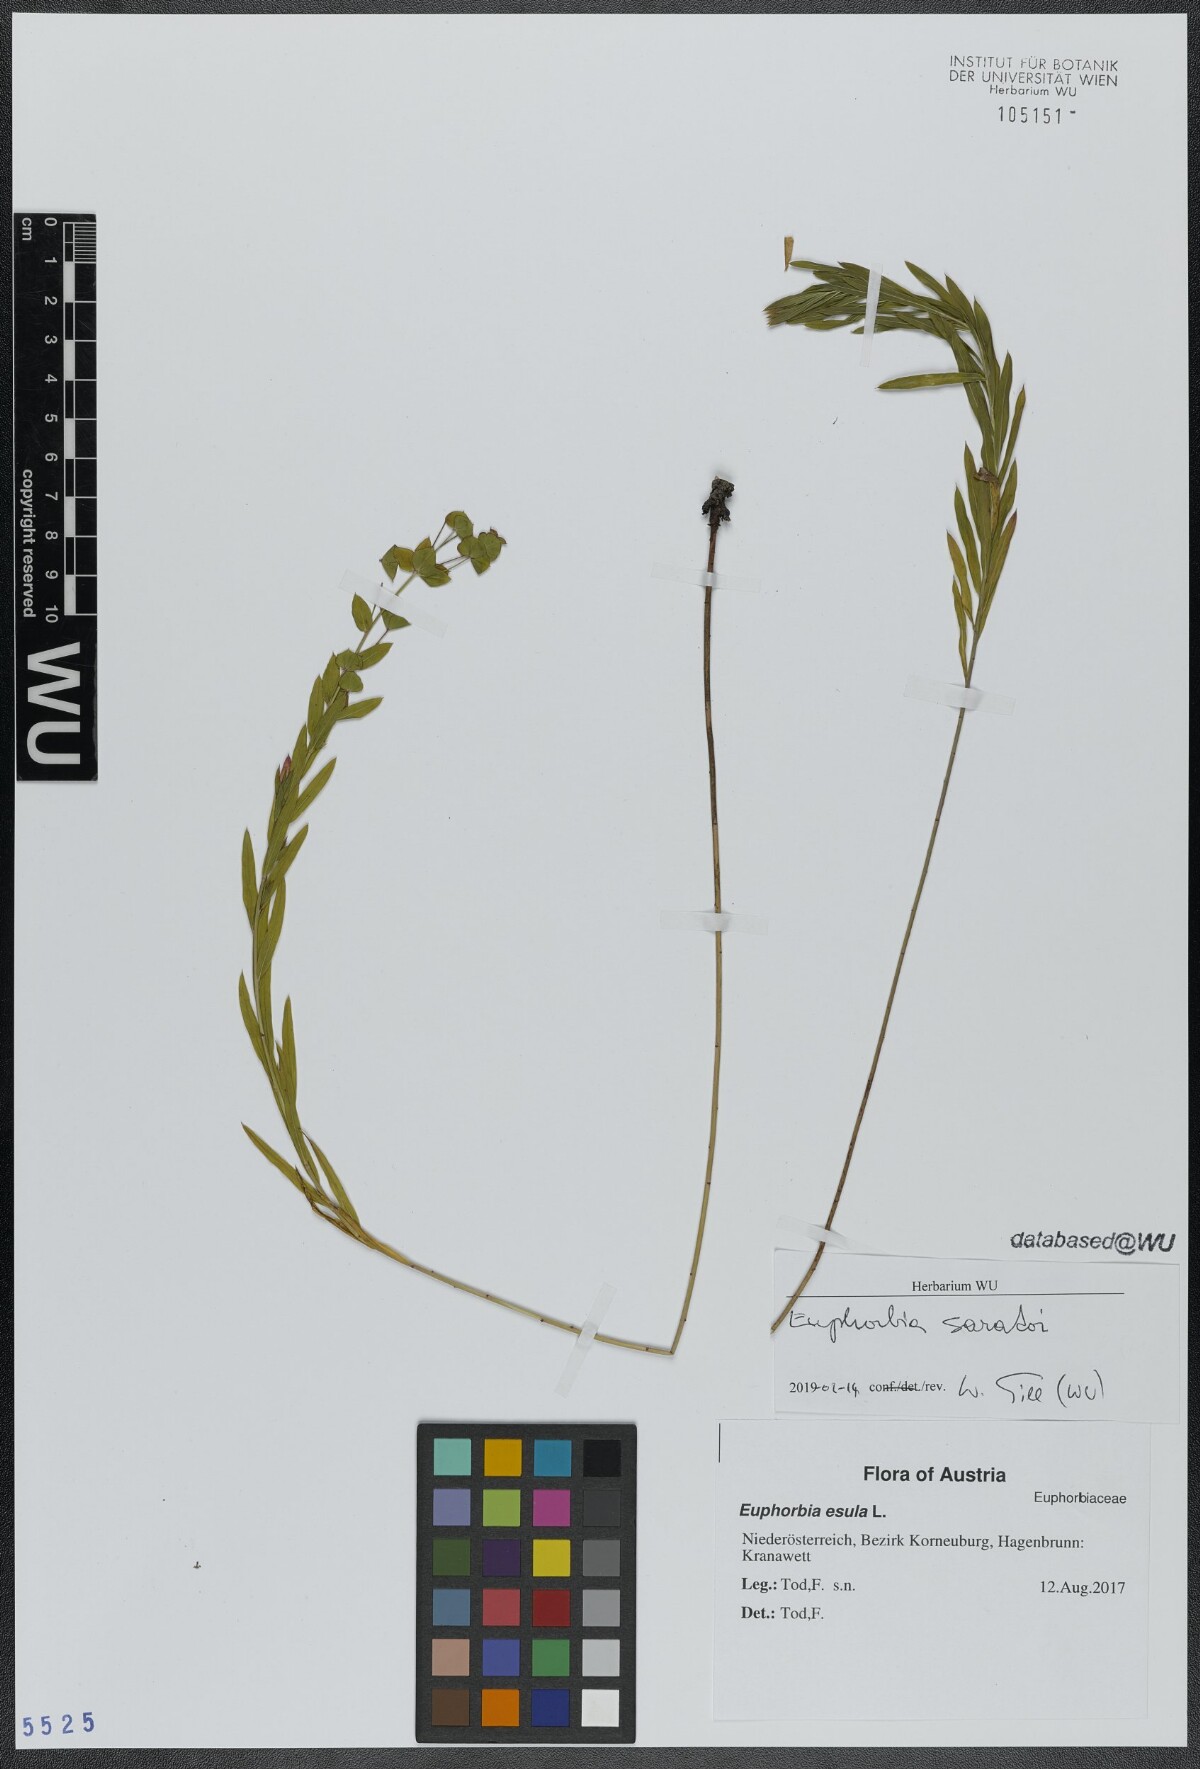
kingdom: Plantae
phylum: Tracheophyta
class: Magnoliopsida
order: Malpighiales
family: Euphorbiaceae
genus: Euphorbia
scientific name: Euphorbia saratoi
